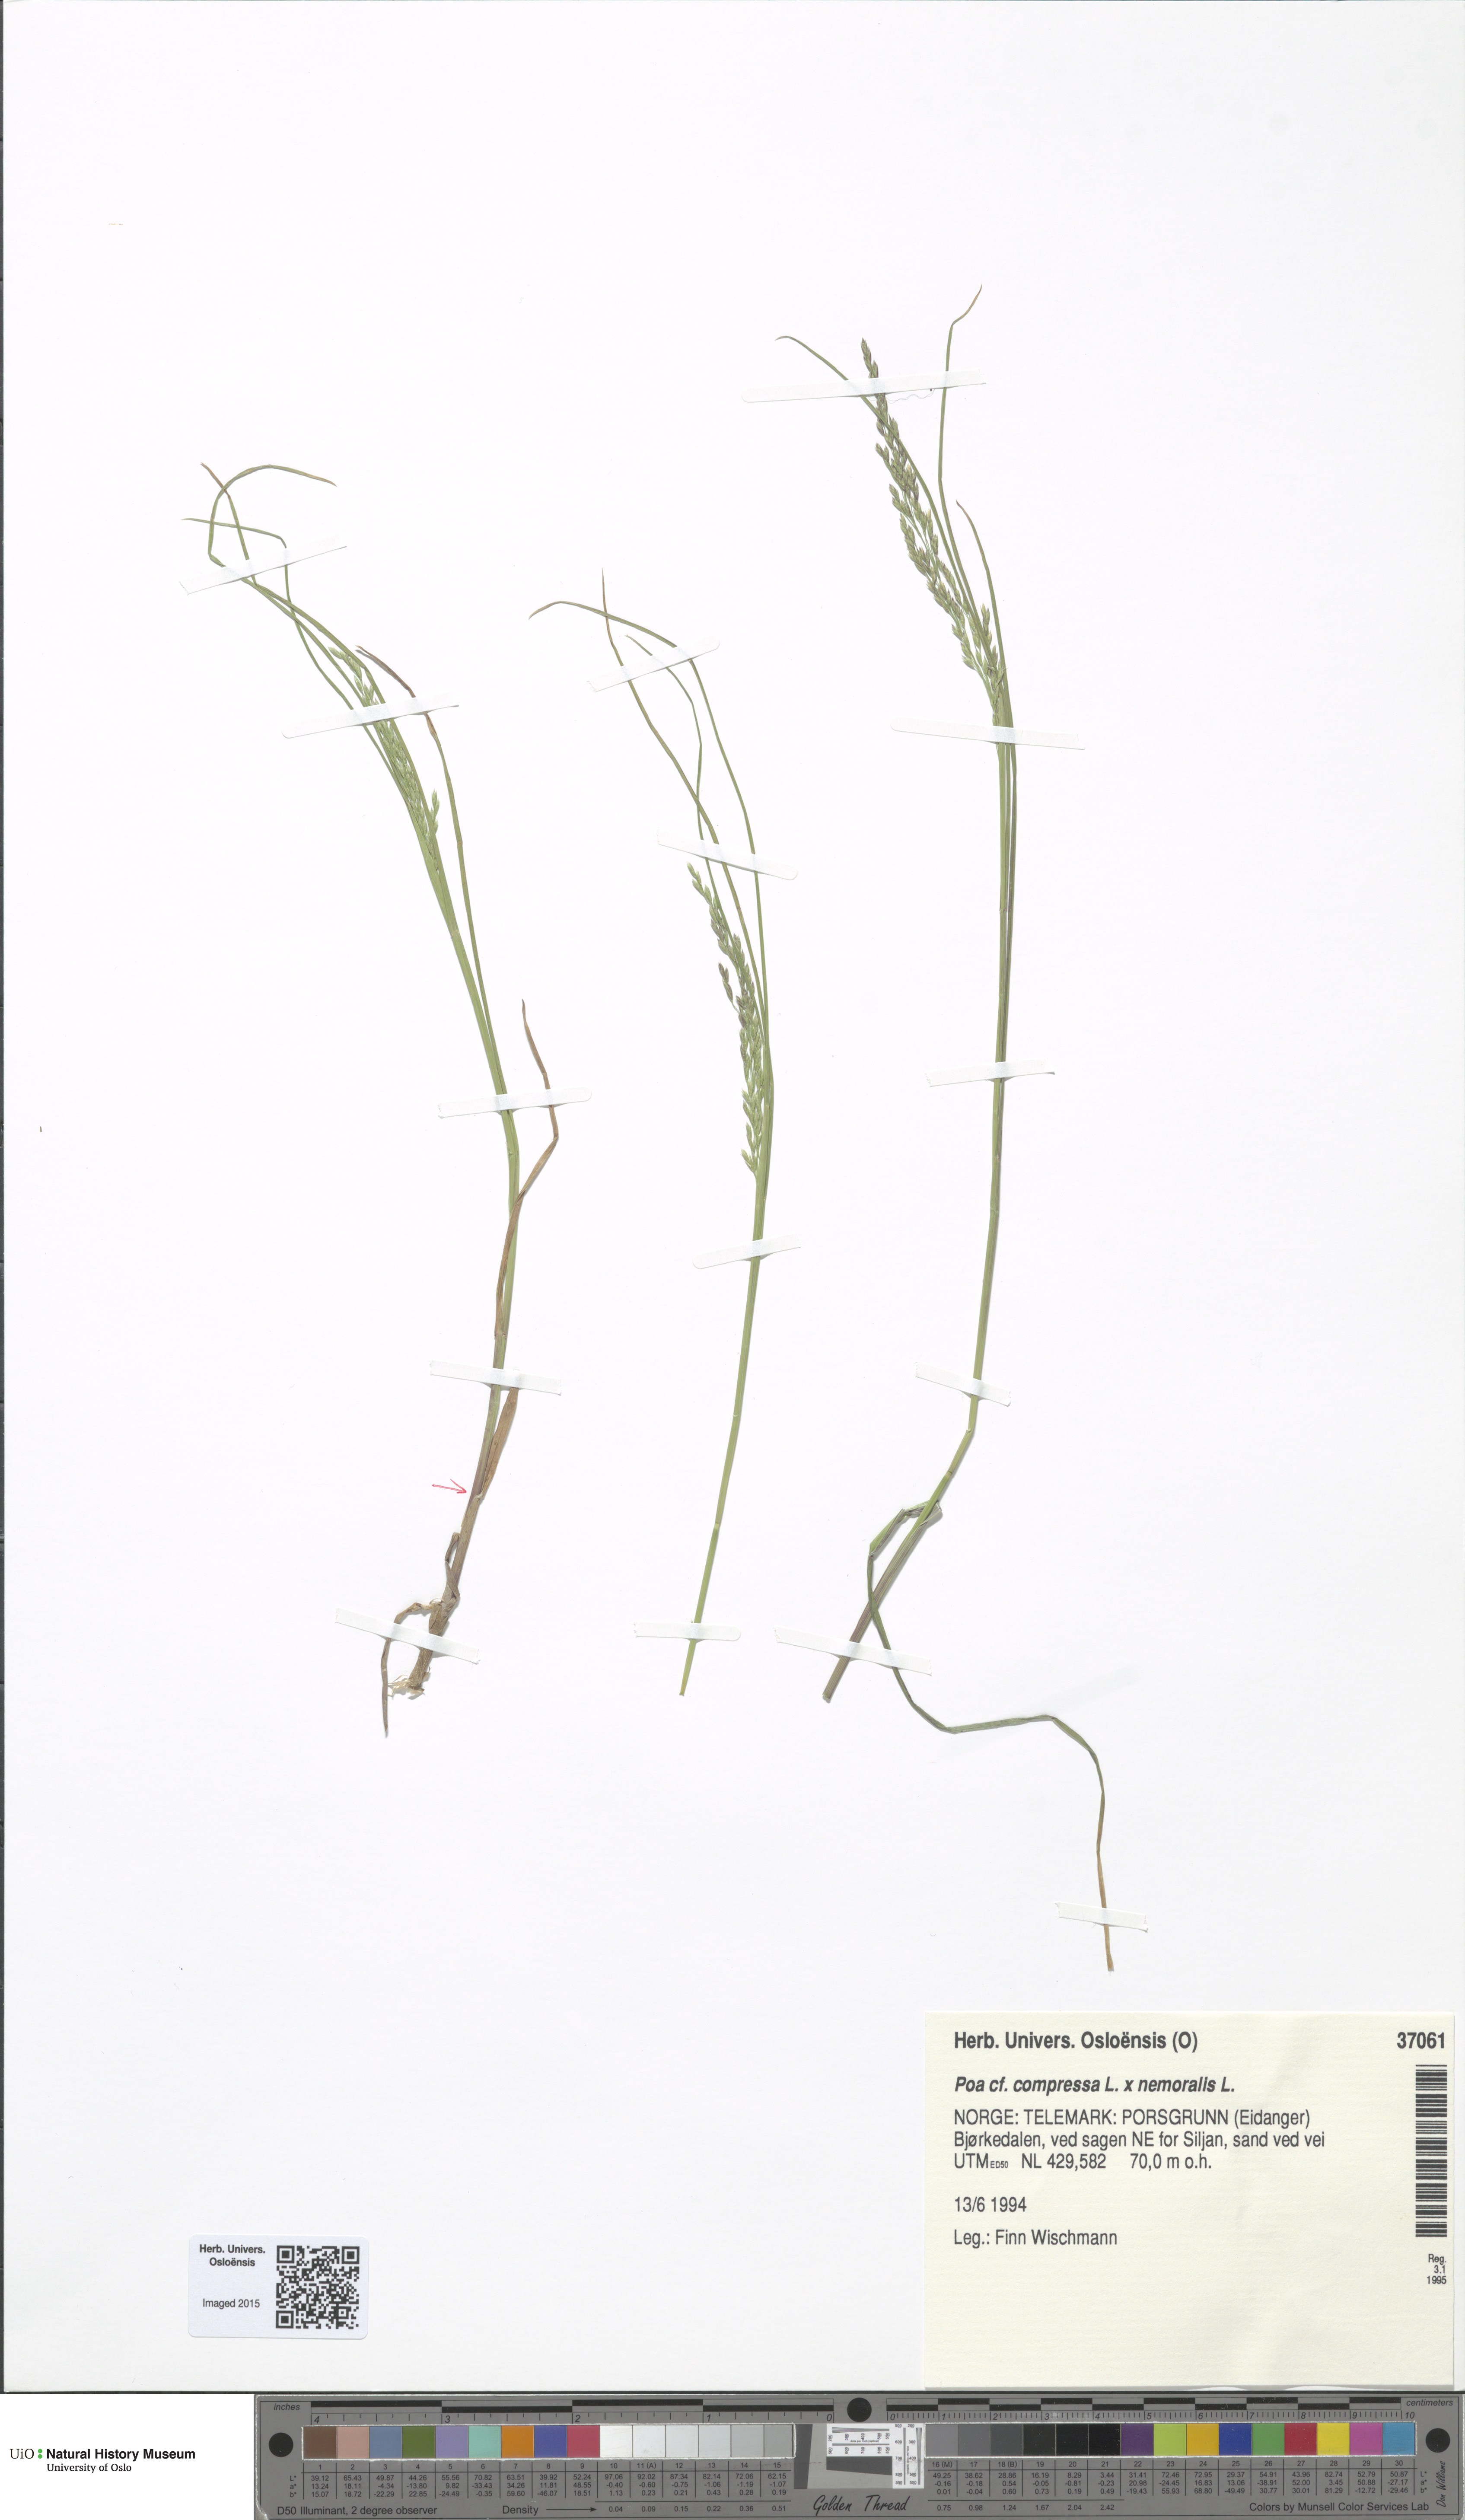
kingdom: Plantae
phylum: Tracheophyta
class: Liliopsida
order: Poales
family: Poaceae
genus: Poa
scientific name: Poa
